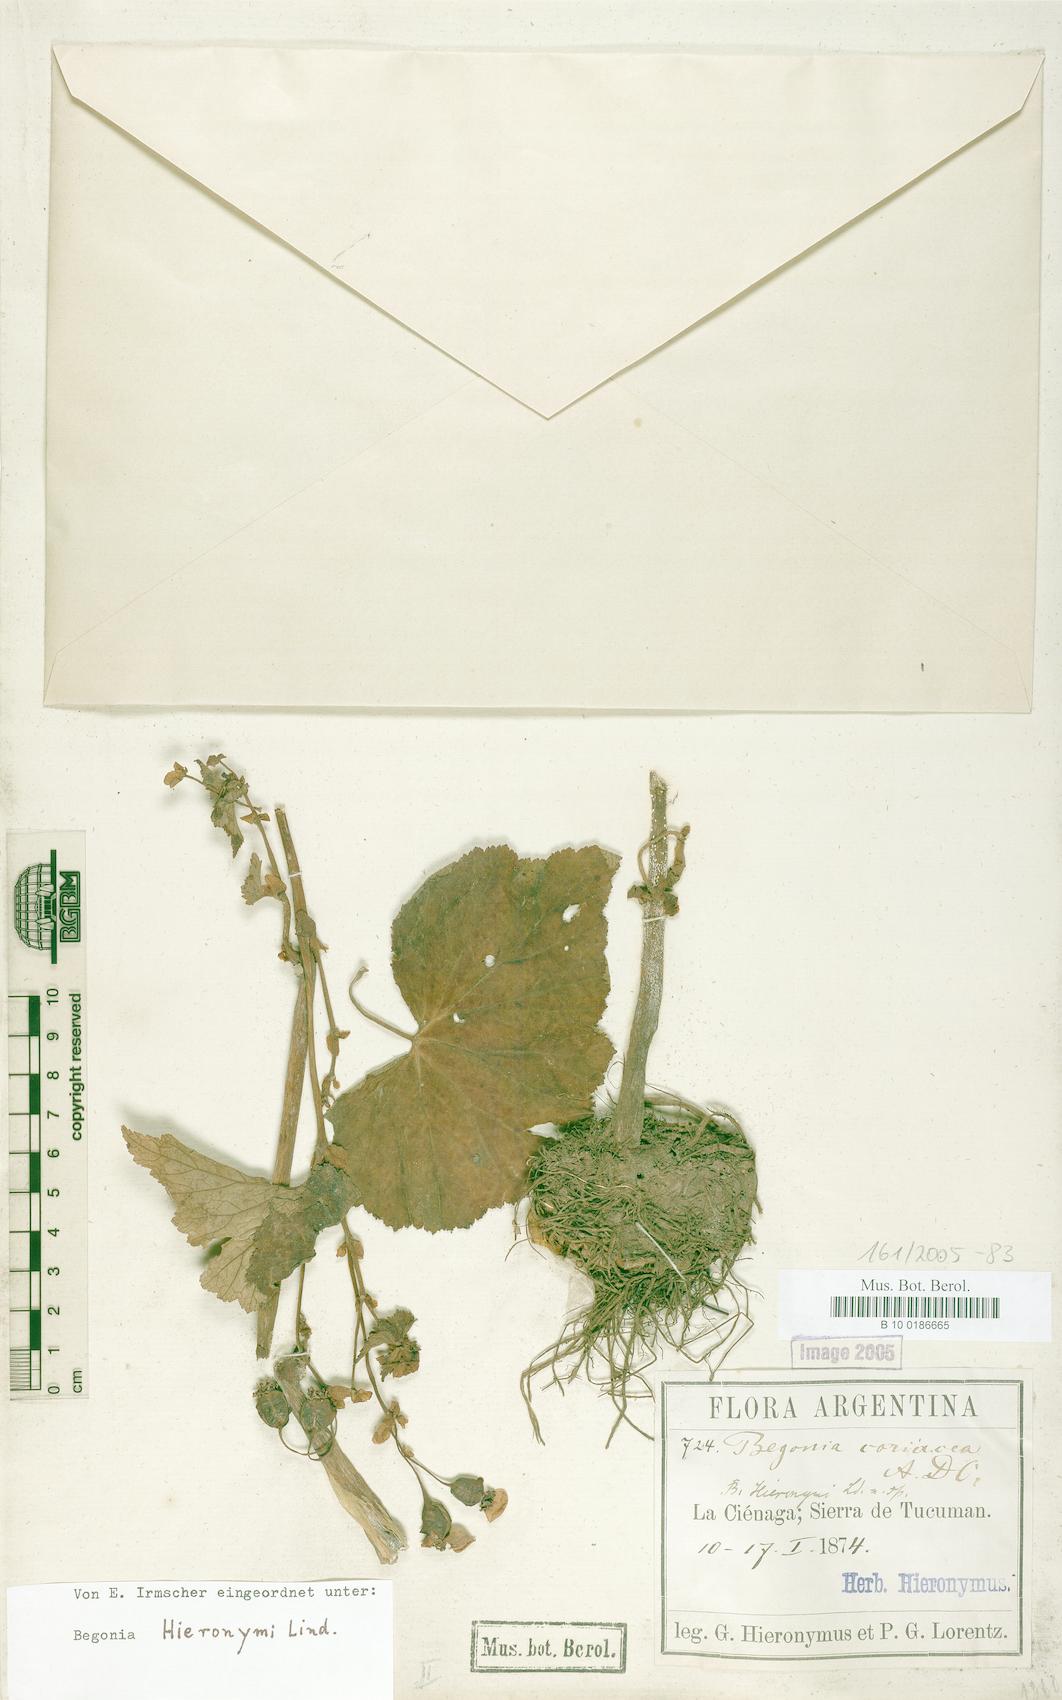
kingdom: Plantae
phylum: Tracheophyta
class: Magnoliopsida
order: Cucurbitales
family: Begoniaceae
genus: Begonia
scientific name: Begonia micranthera
